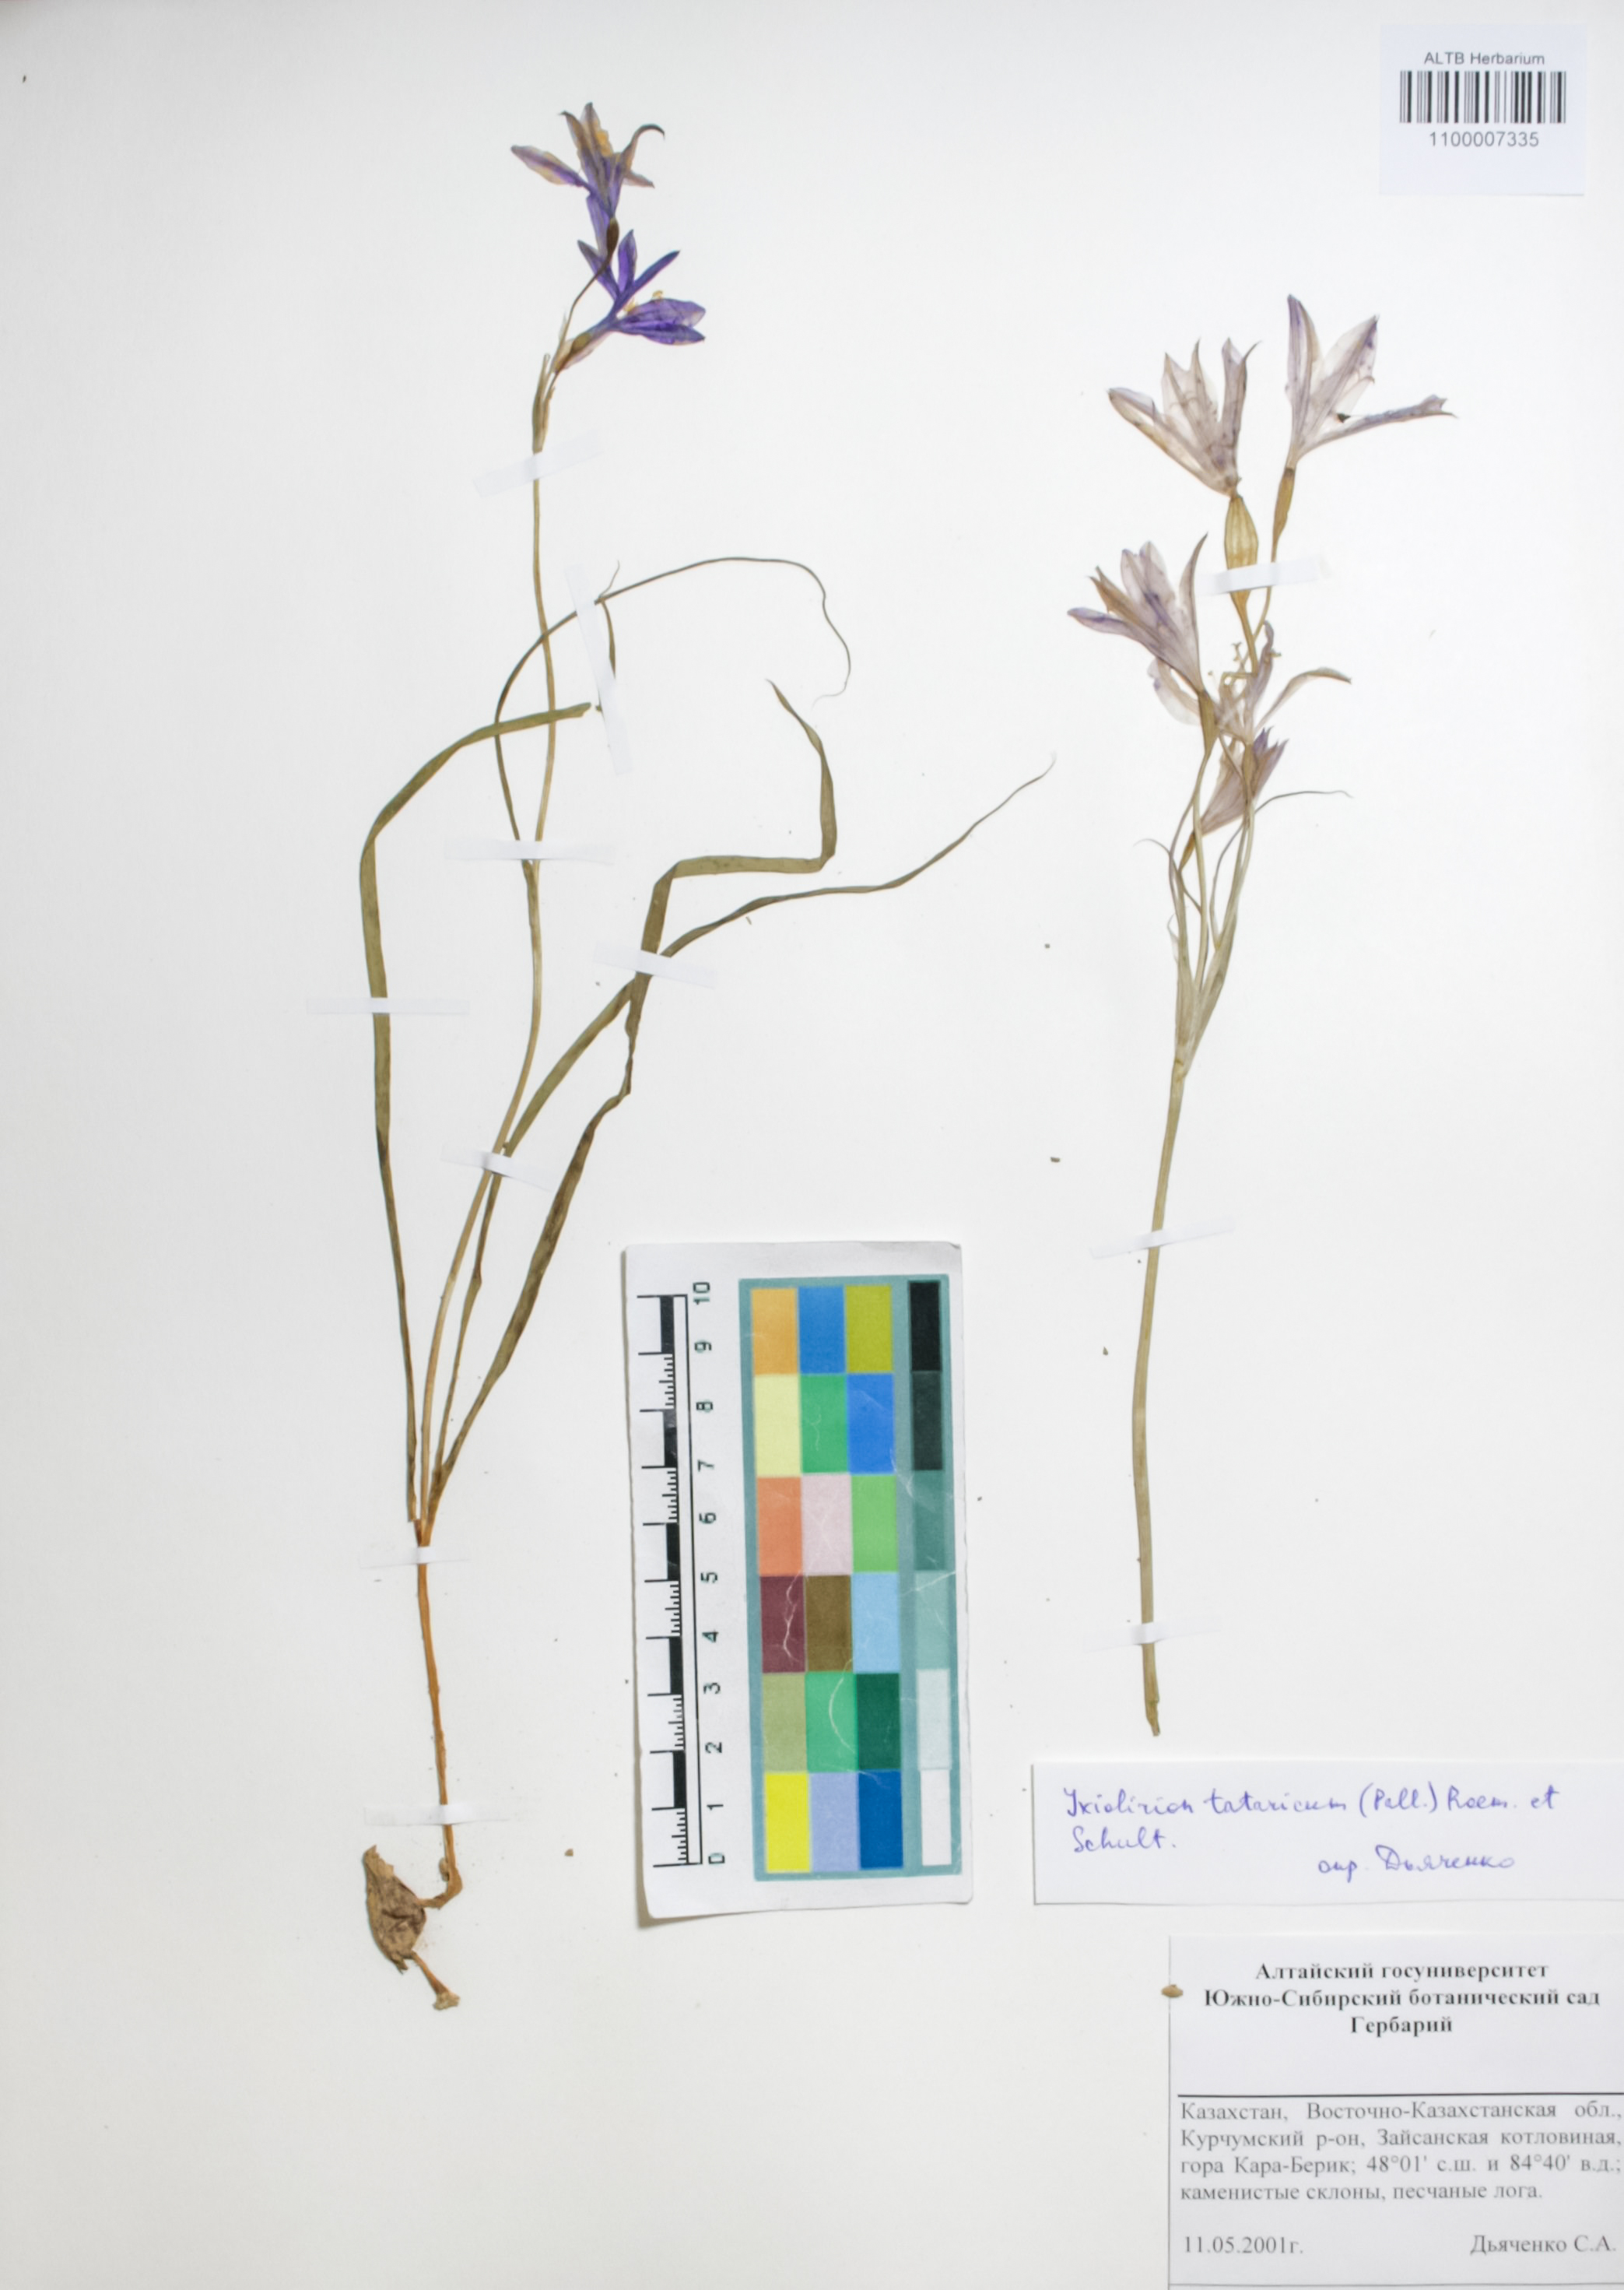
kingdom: Plantae
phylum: Tracheophyta
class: Liliopsida
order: Asparagales
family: Ixioliriaceae
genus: Ixiolirion
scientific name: Ixiolirion tataricum
